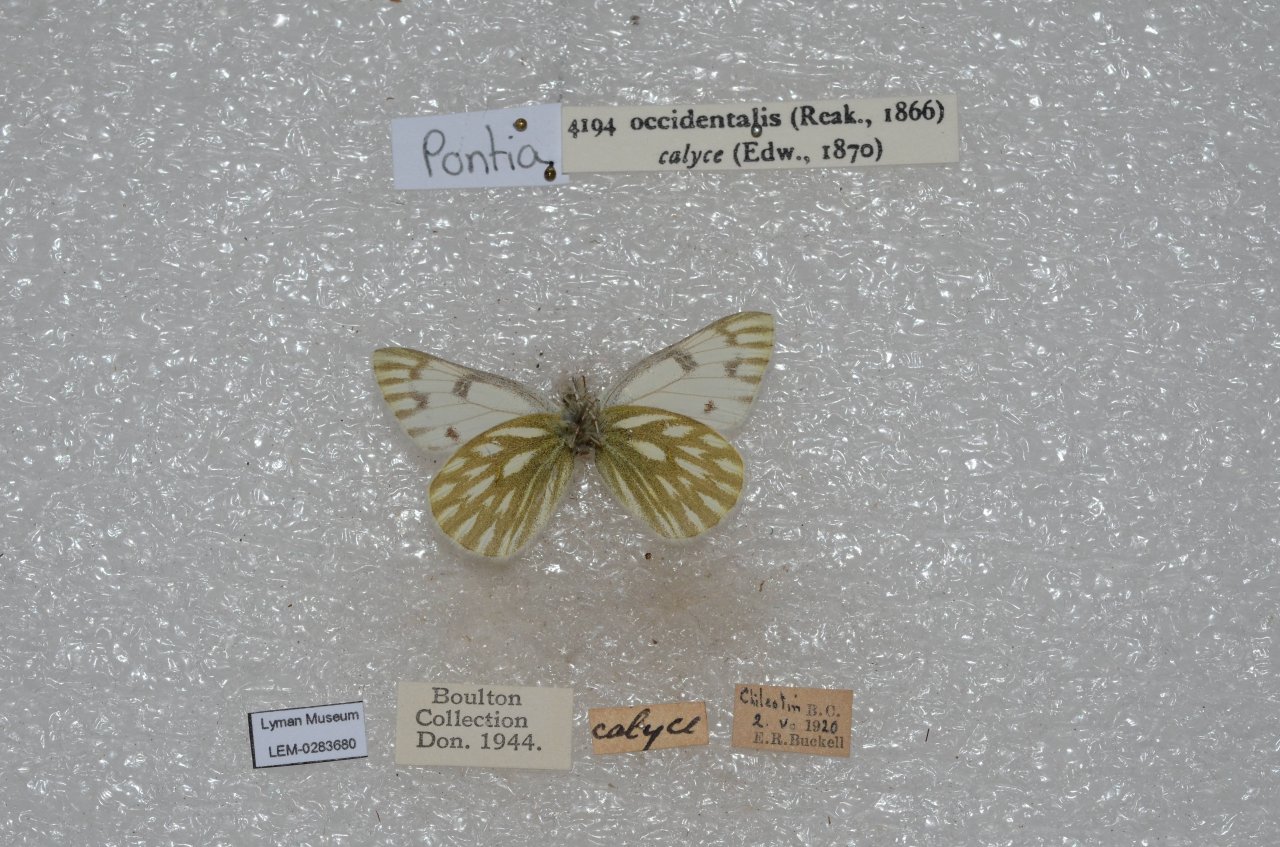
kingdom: Animalia
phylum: Arthropoda
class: Insecta
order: Lepidoptera
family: Pieridae
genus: Pontia
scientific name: Pontia occidentalis
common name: Western White
